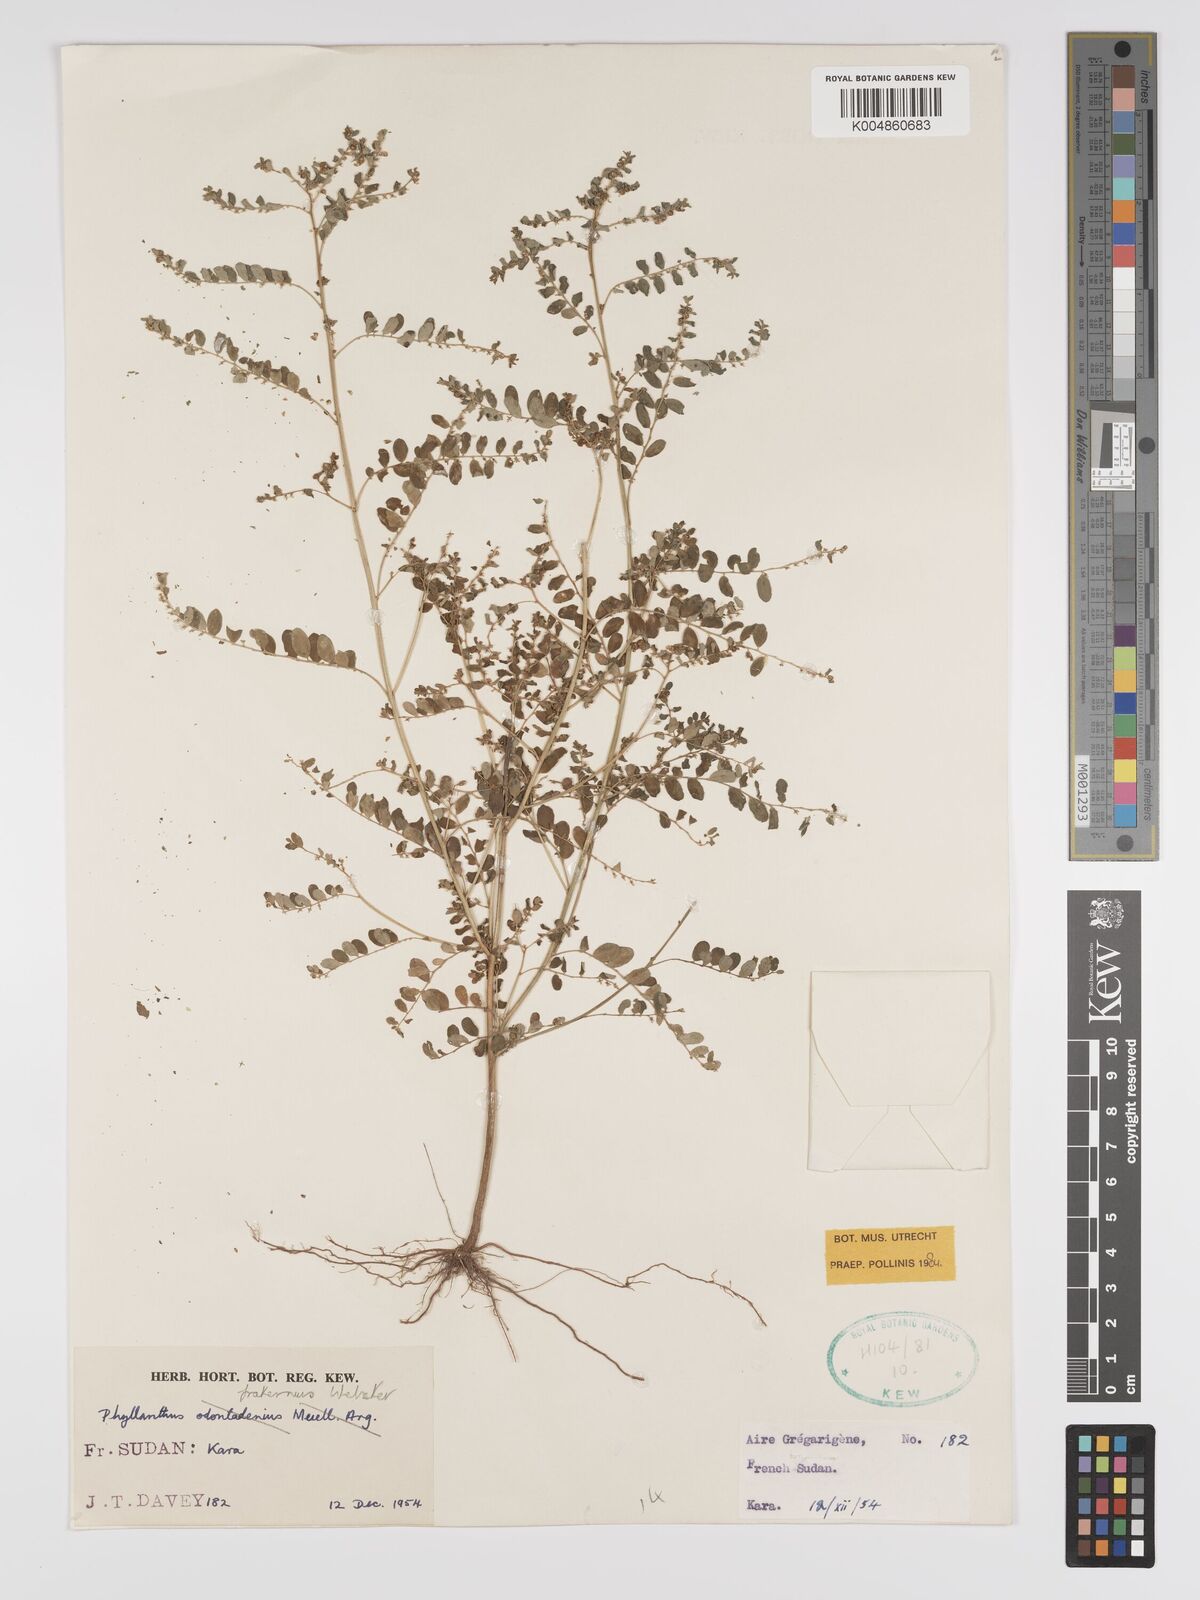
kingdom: Plantae
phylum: Tracheophyta
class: Magnoliopsida
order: Malpighiales
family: Phyllanthaceae
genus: Phyllanthus
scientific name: Phyllanthus fraternus
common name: Gulf leaf-flower
